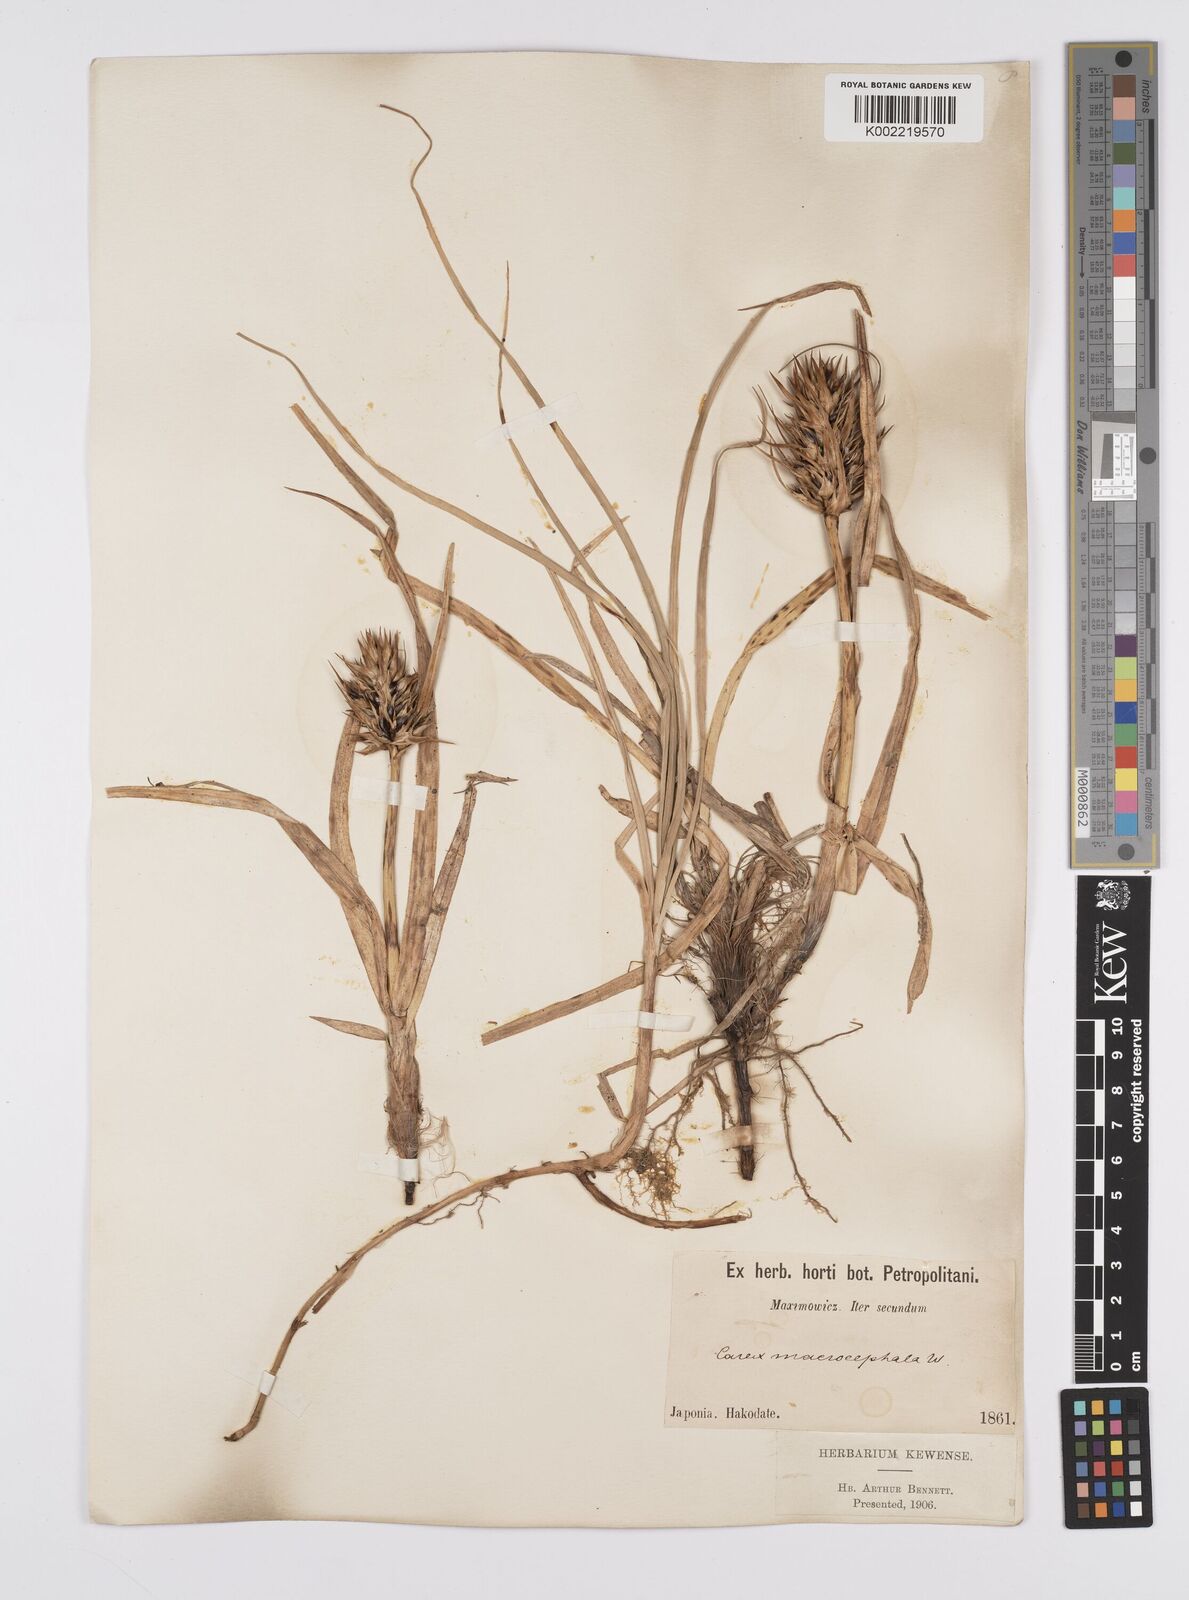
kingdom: Plantae
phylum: Tracheophyta
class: Liliopsida
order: Poales
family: Cyperaceae
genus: Carex
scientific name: Carex macrocephala
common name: Large-head sedge
